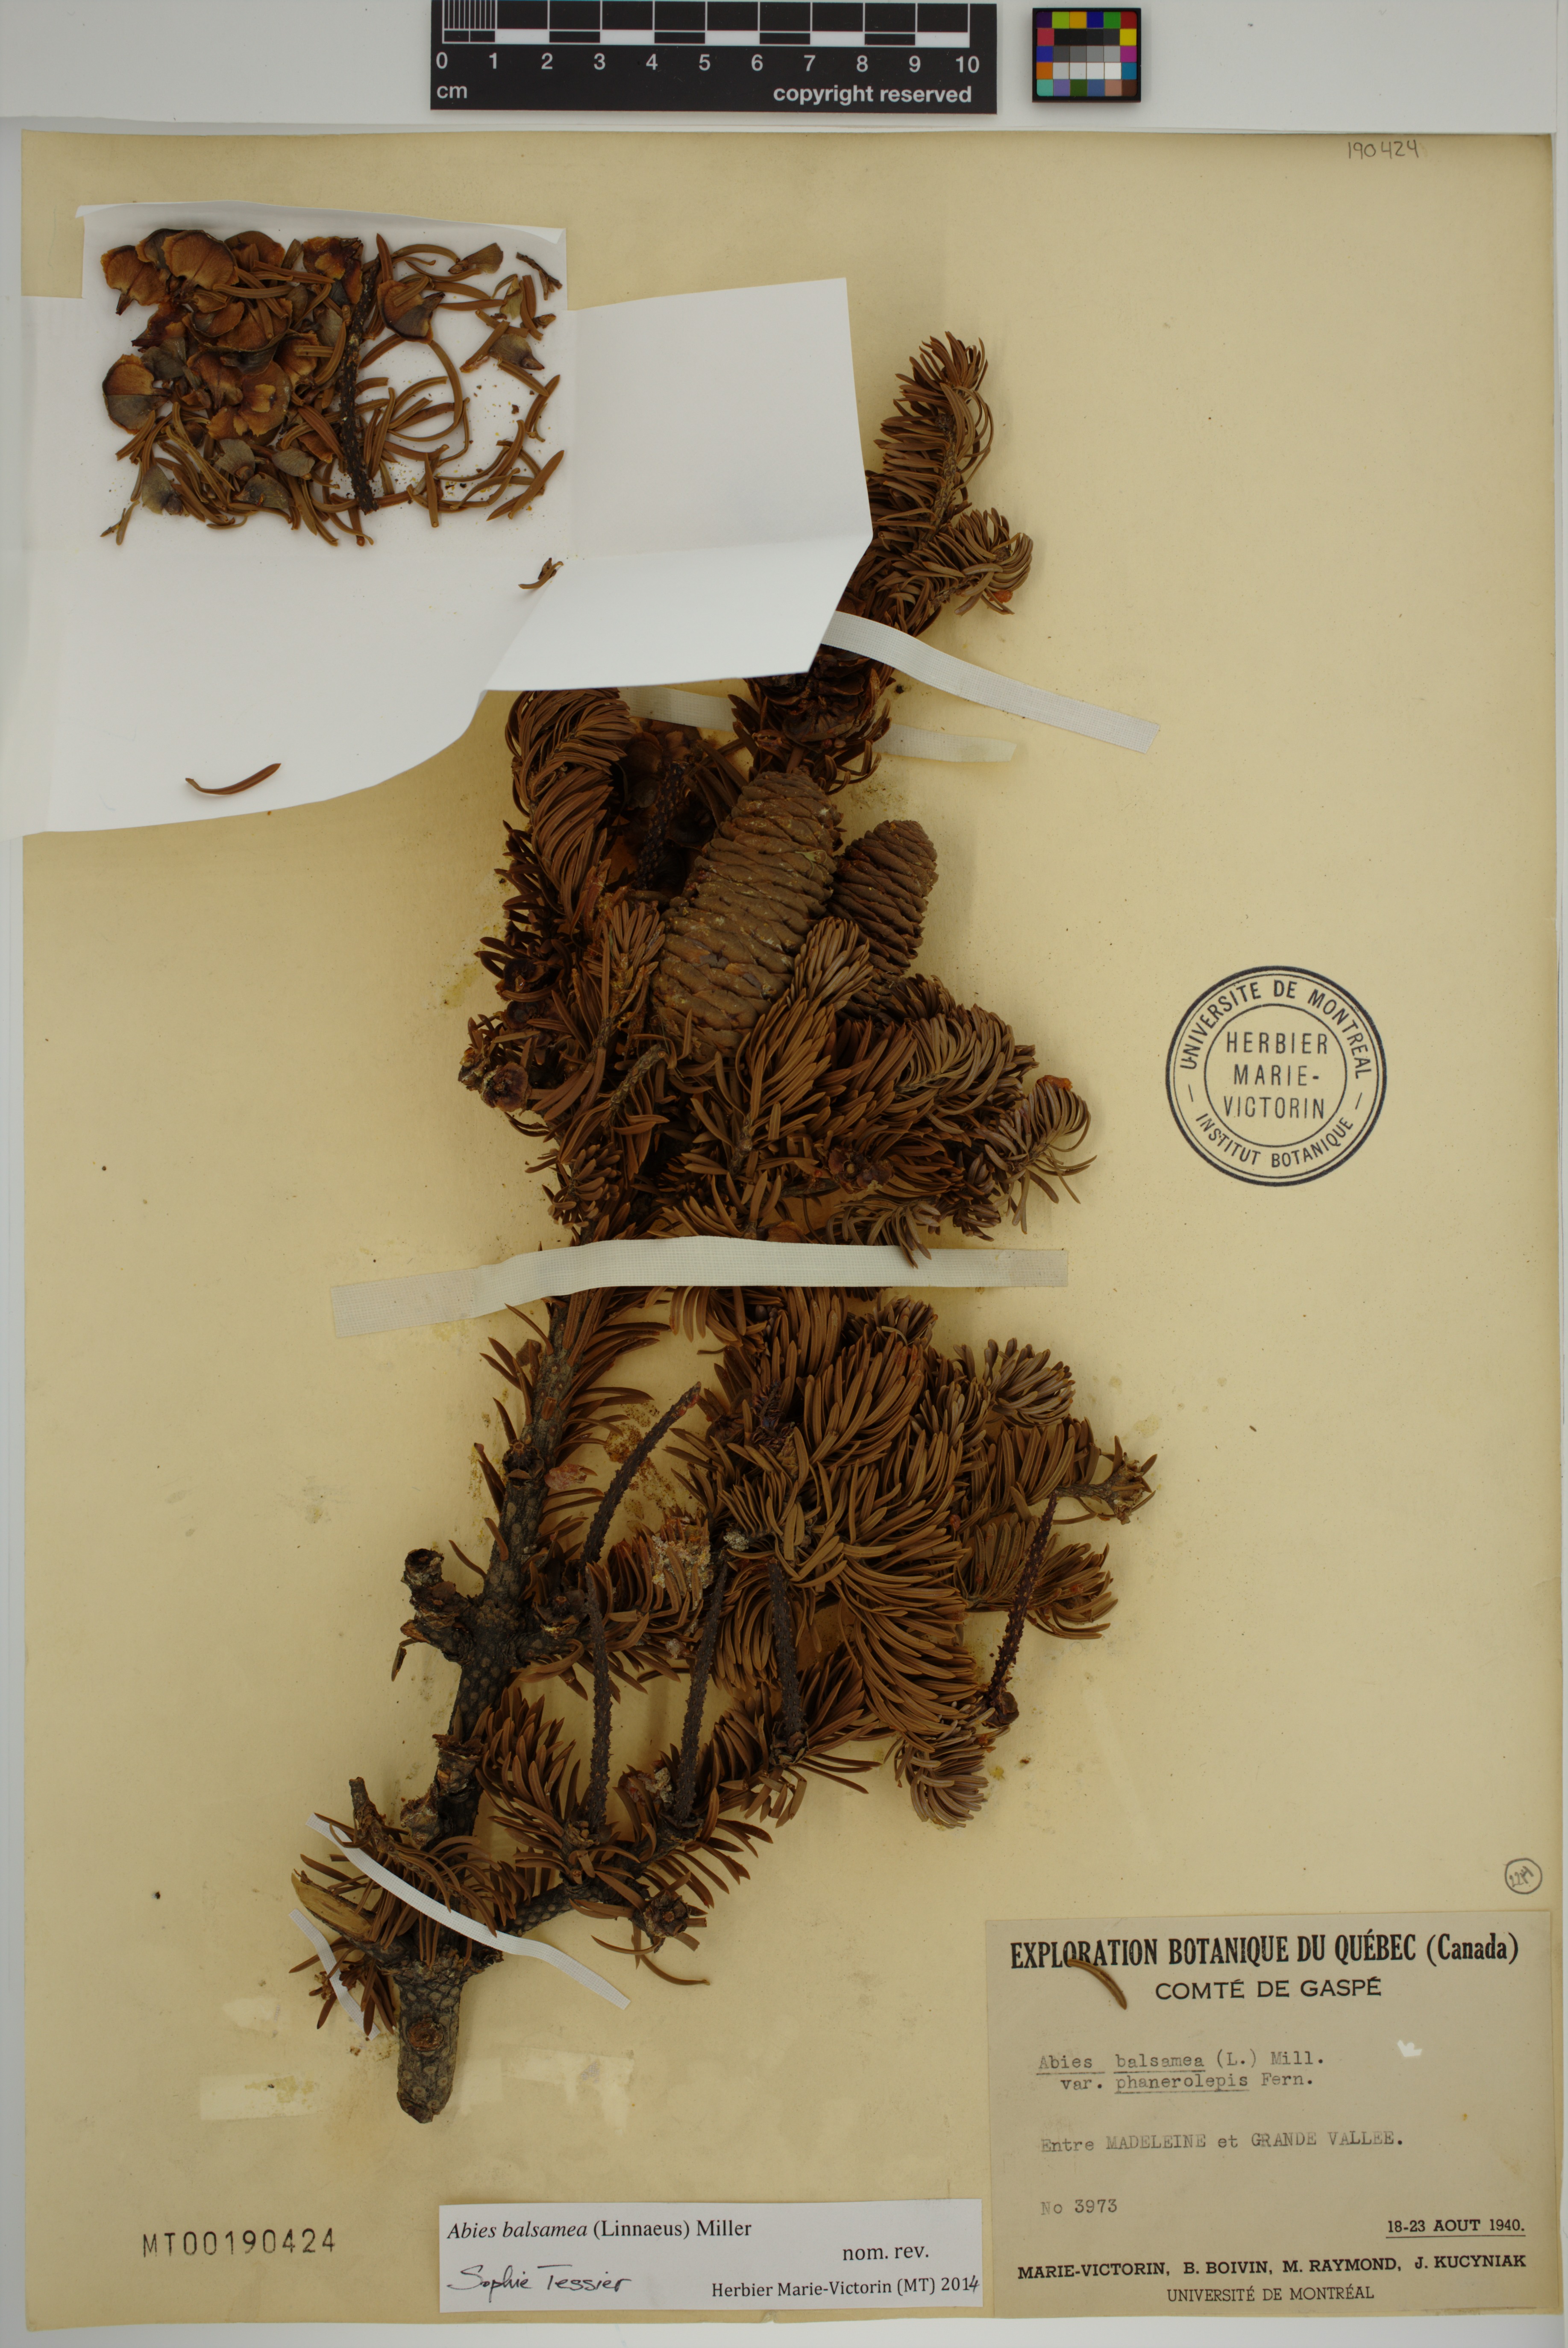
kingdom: Plantae
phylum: Tracheophyta
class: Pinopsida
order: Pinales
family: Pinaceae
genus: Abies
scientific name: Abies balsamea
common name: Balsam fir
